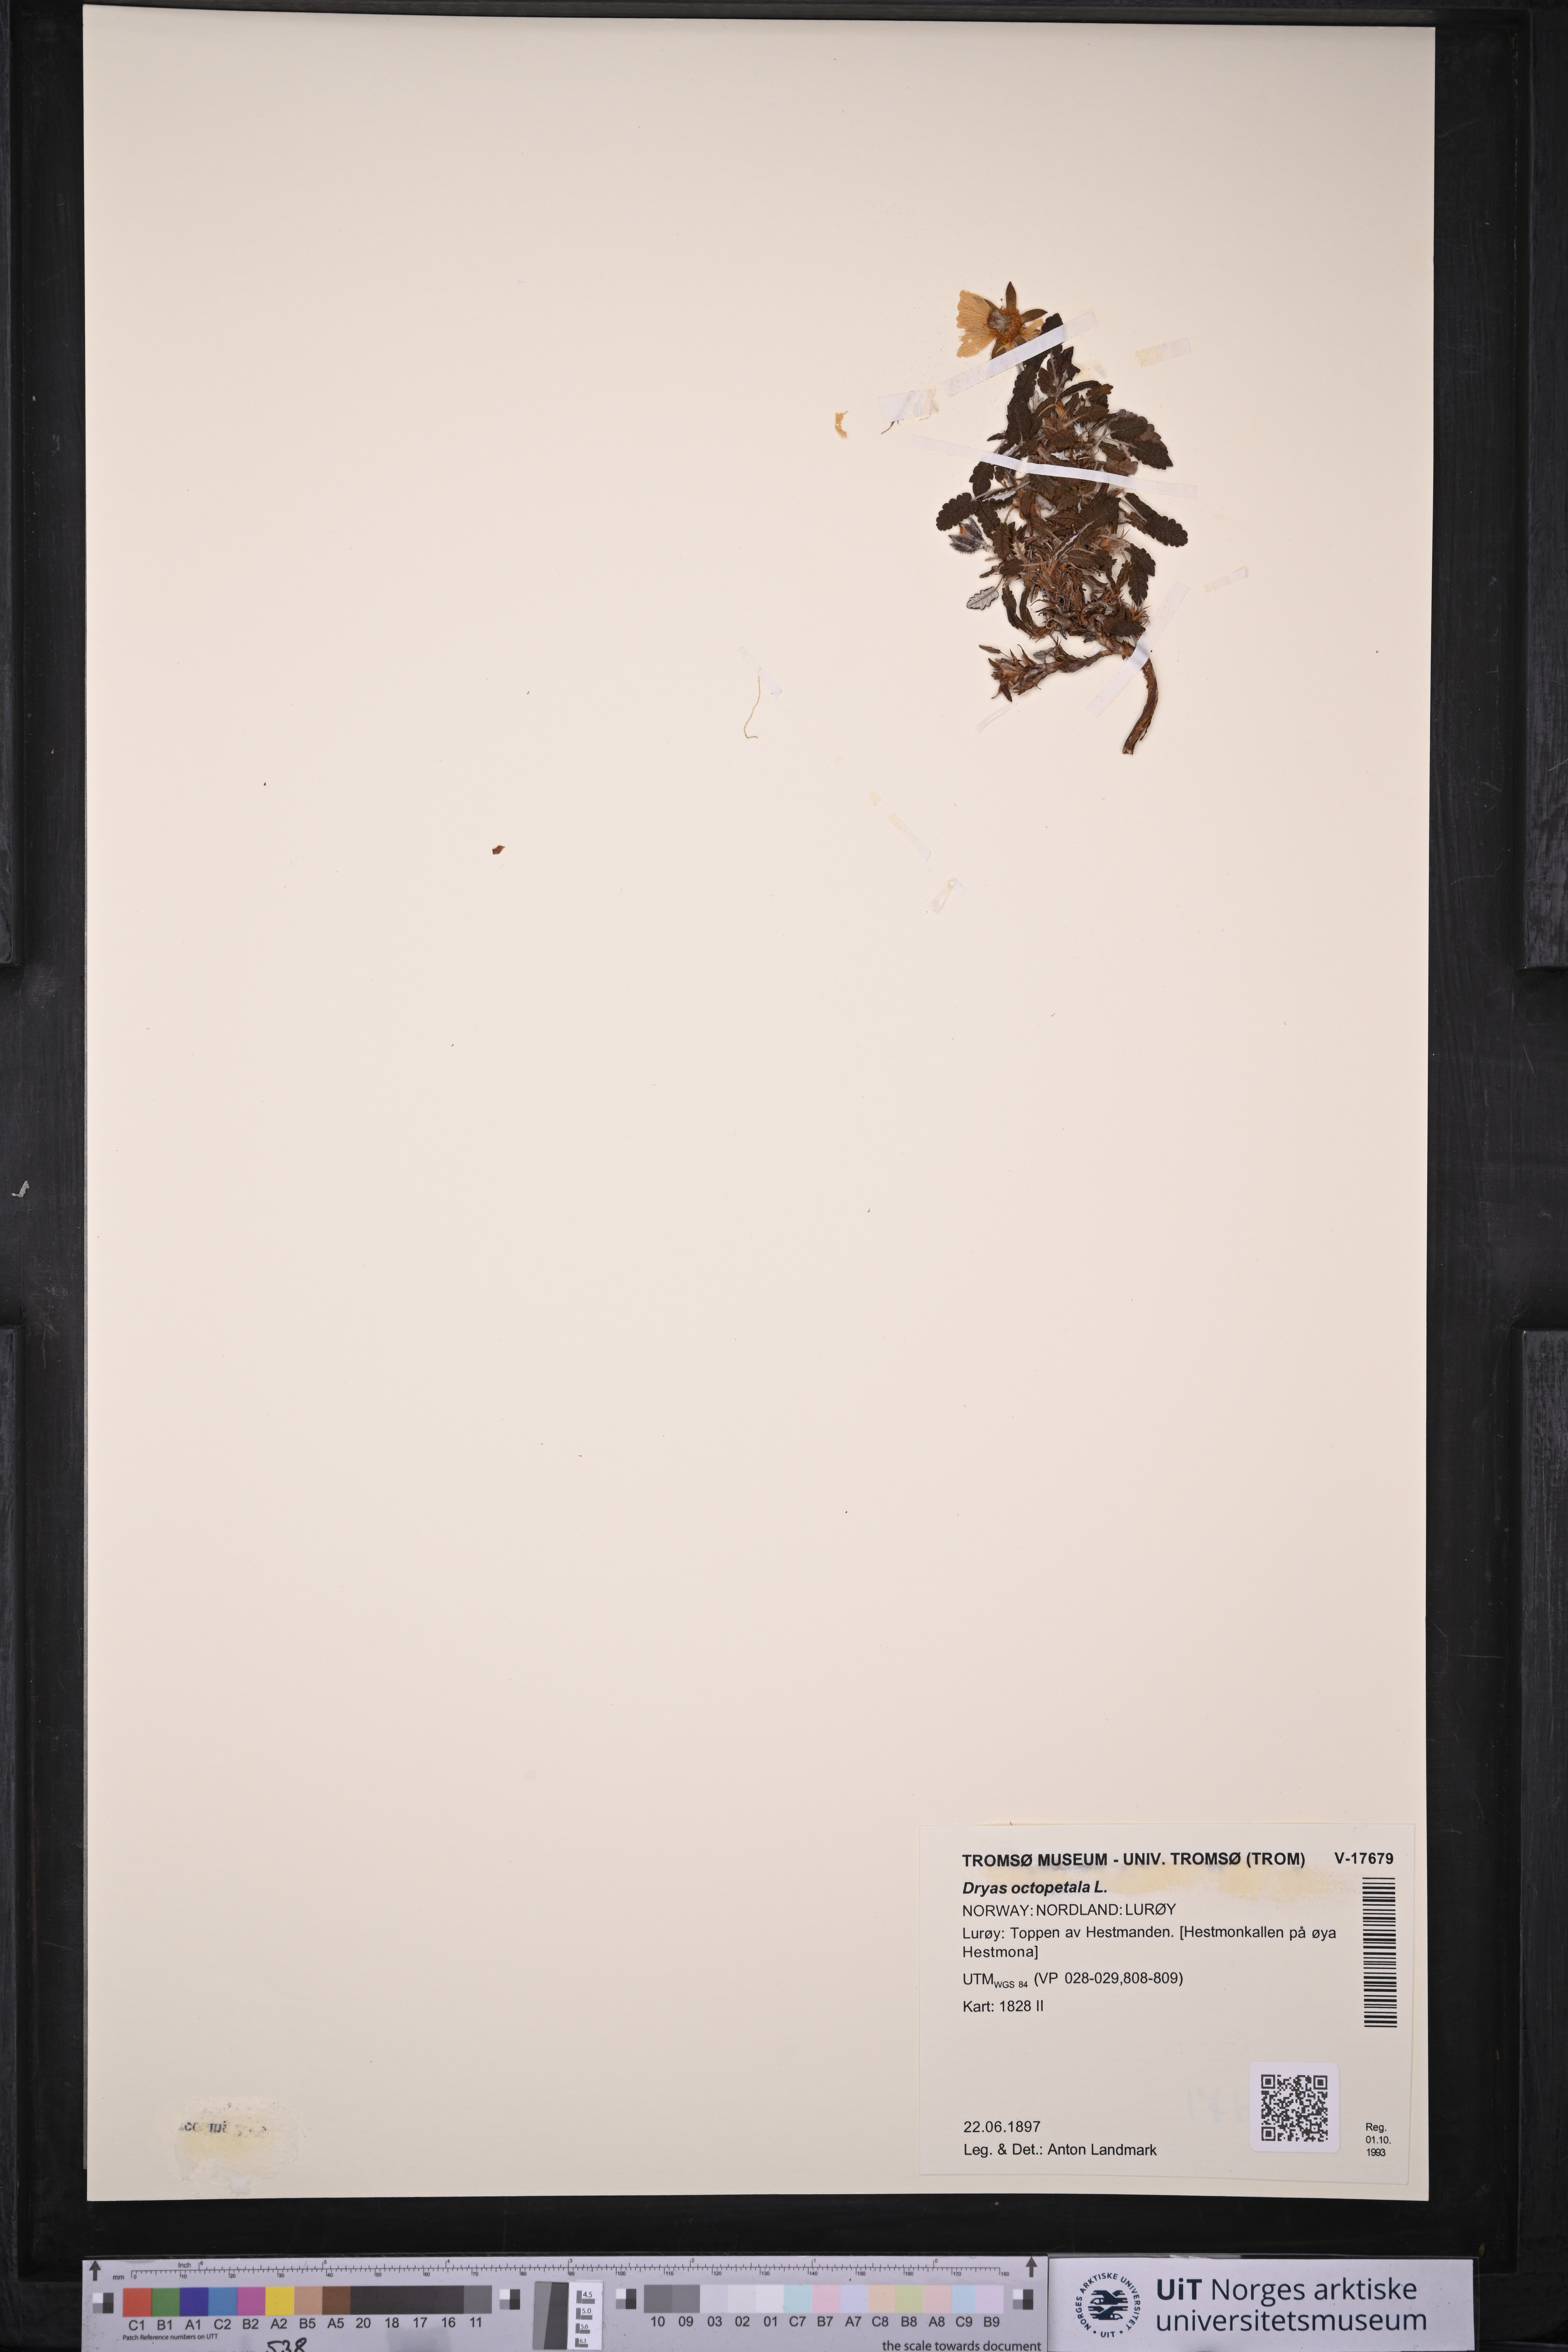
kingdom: Plantae
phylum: Tracheophyta
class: Magnoliopsida
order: Rosales
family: Rosaceae
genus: Dryas
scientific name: Dryas octopetala
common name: Eight-petal mountain-avens
